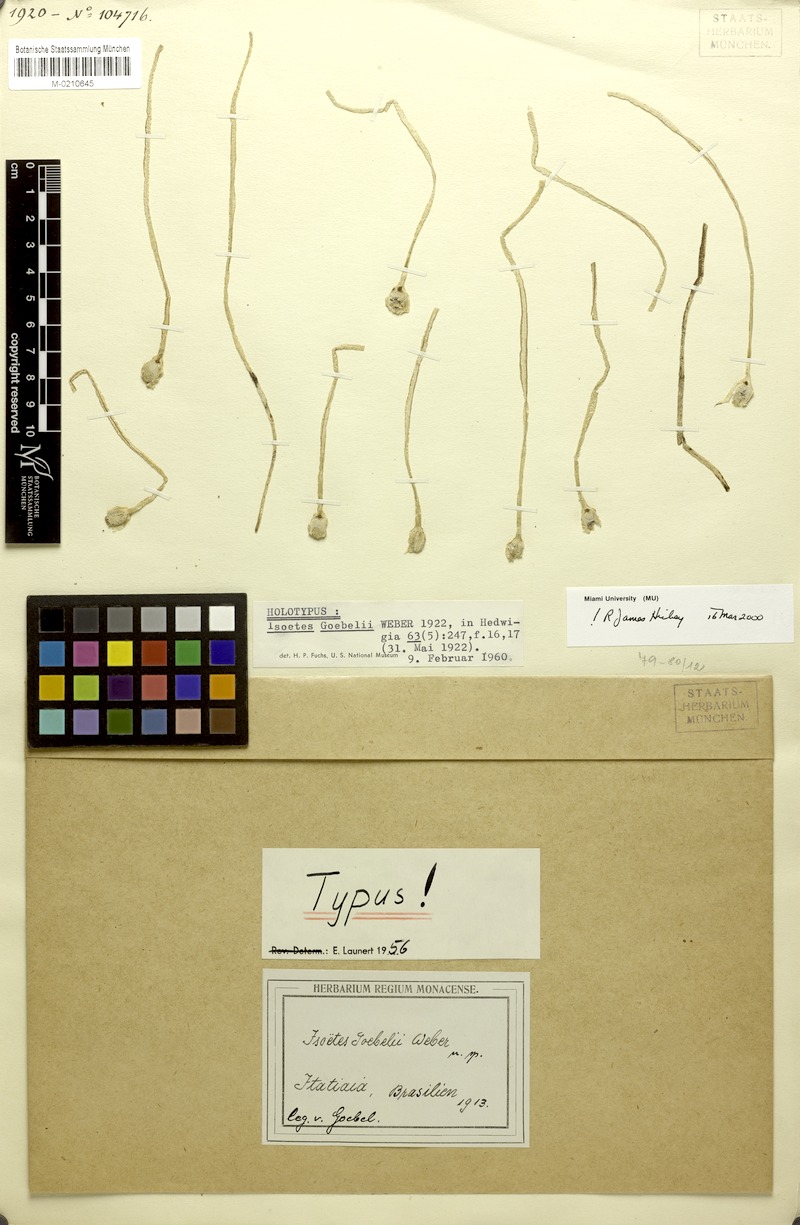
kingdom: Plantae
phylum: Tracheophyta
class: Lycopodiopsida
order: Isoetales
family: Isoetaceae
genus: Isoetes
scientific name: Isoetes ulei
